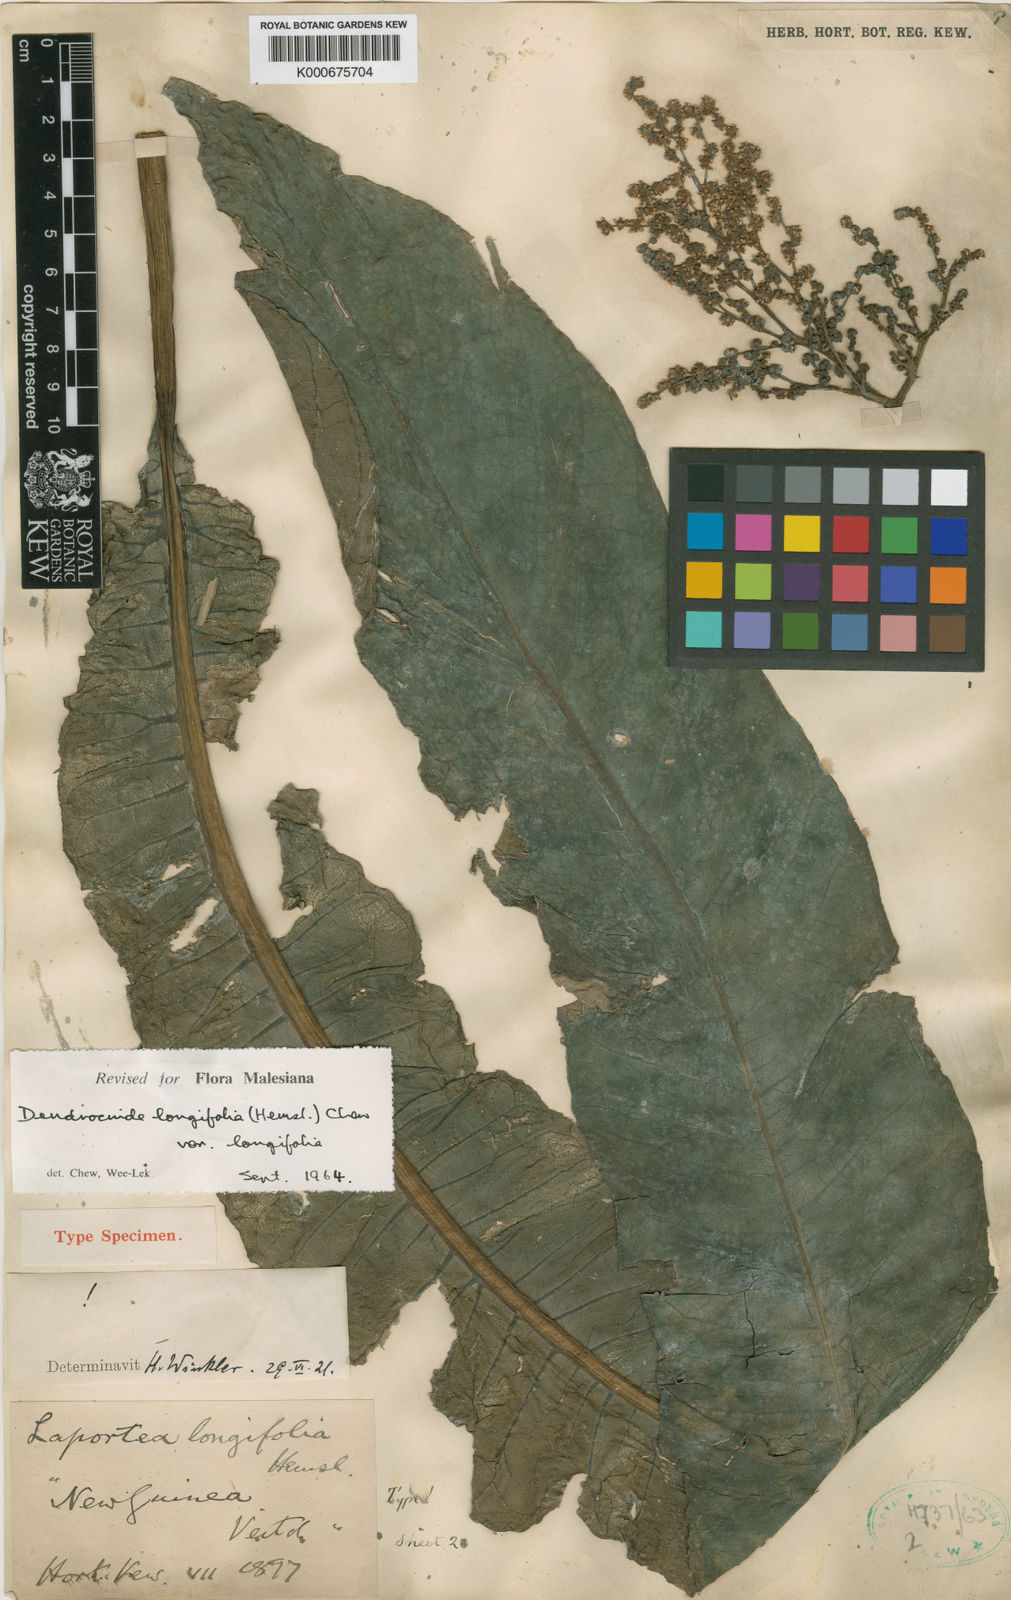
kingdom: Plantae
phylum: Tracheophyta
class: Magnoliopsida
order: Rosales
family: Urticaceae
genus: Dendrocnide
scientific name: Dendrocnide longifolia
